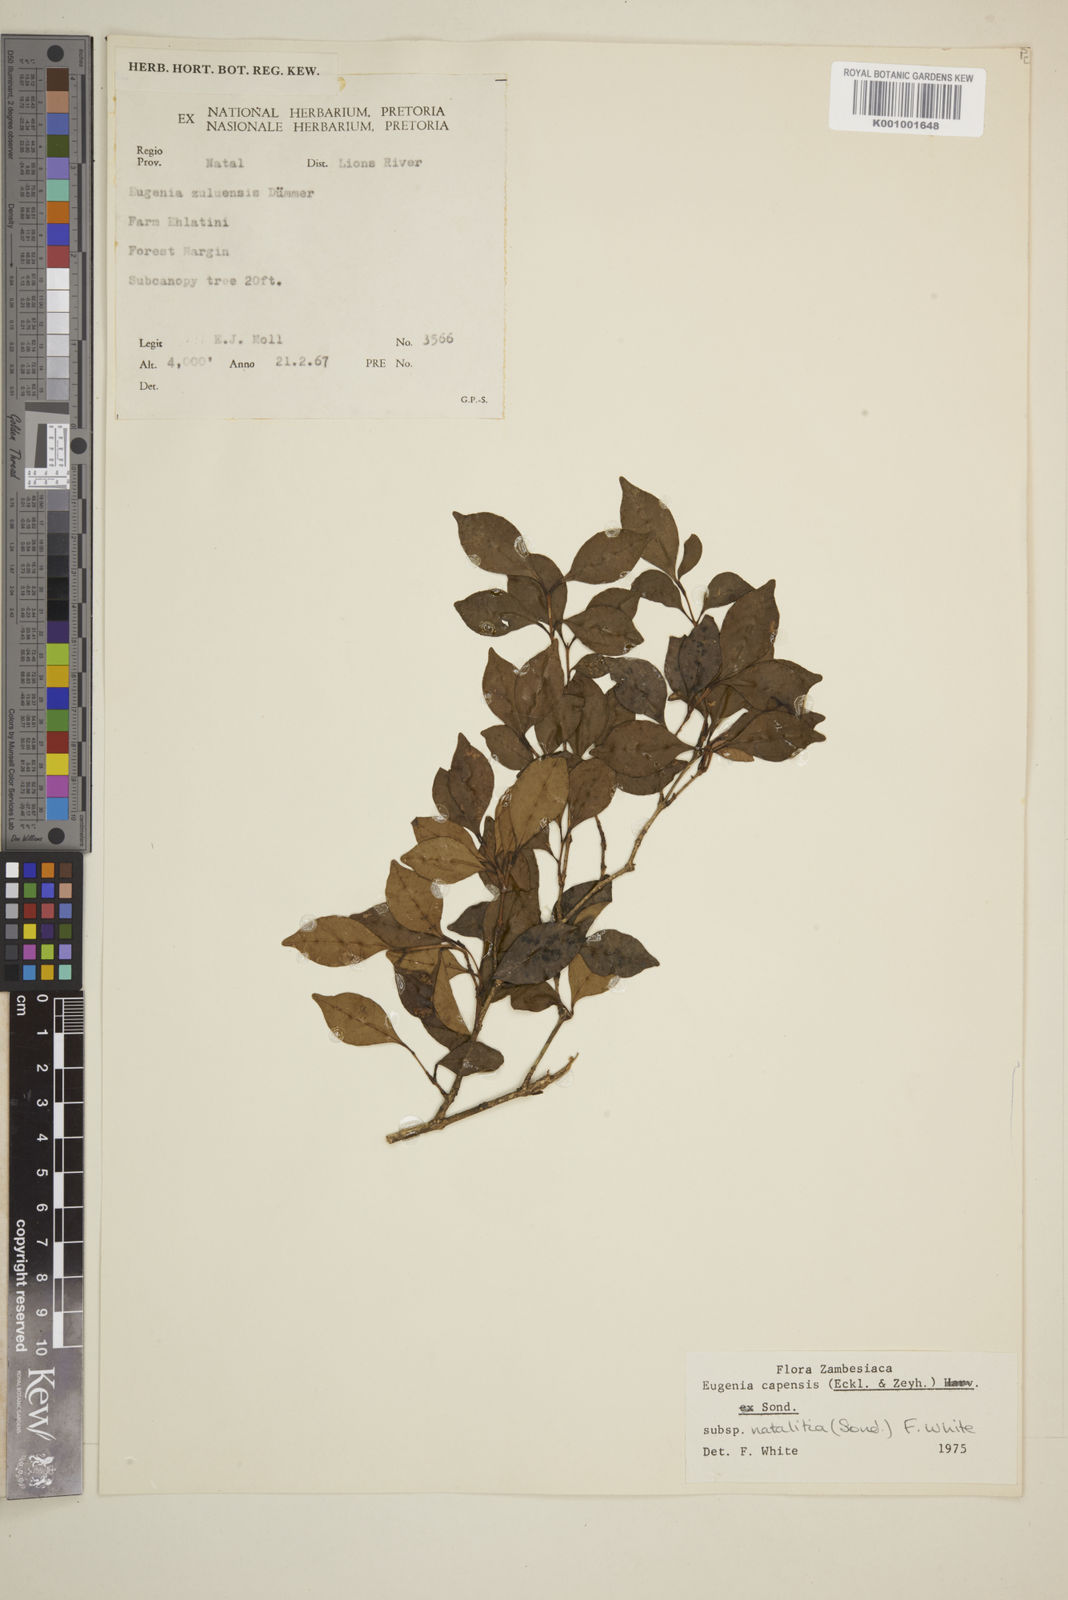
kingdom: Plantae
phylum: Tracheophyta
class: Magnoliopsida
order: Myrtales
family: Myrtaceae
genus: Eugenia
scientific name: Eugenia natalitia
